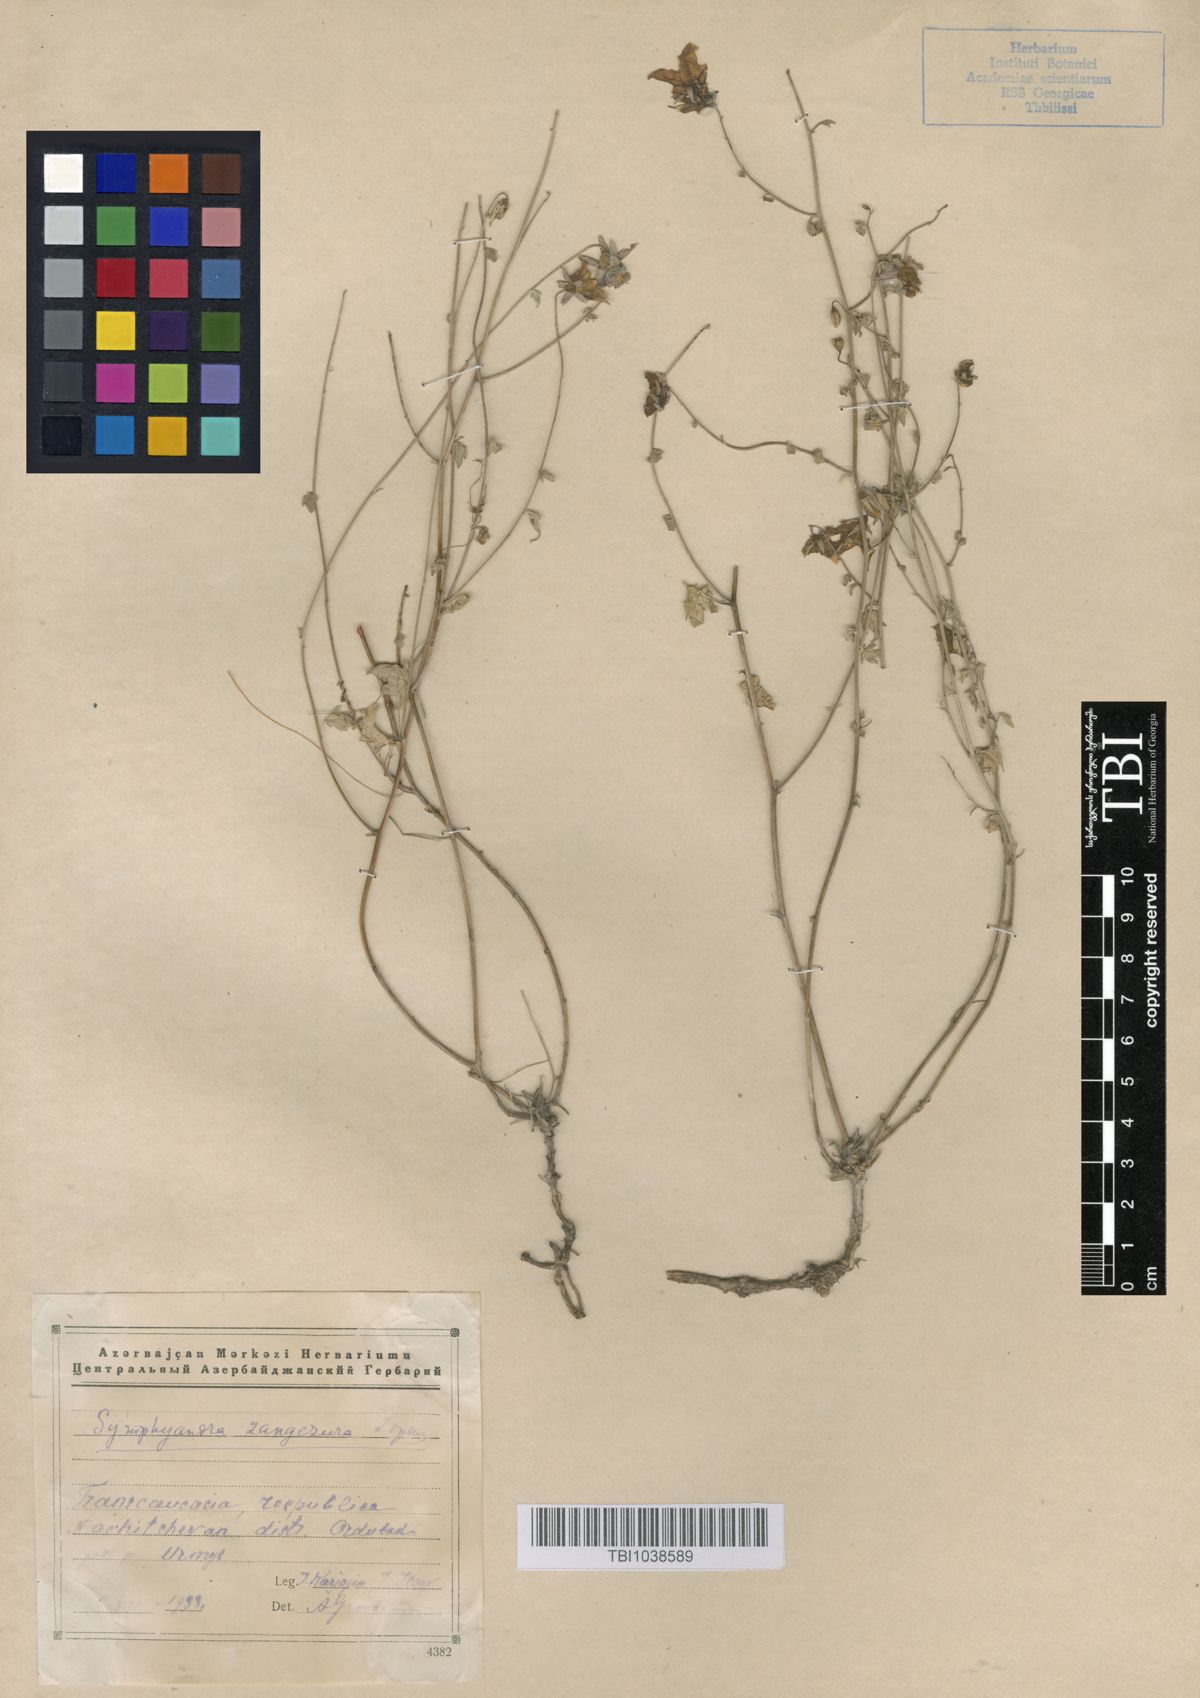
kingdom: Plantae
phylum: Tracheophyta
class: Magnoliopsida
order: Asterales
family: Campanulaceae
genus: Campanula
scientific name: Campanula zangezura
